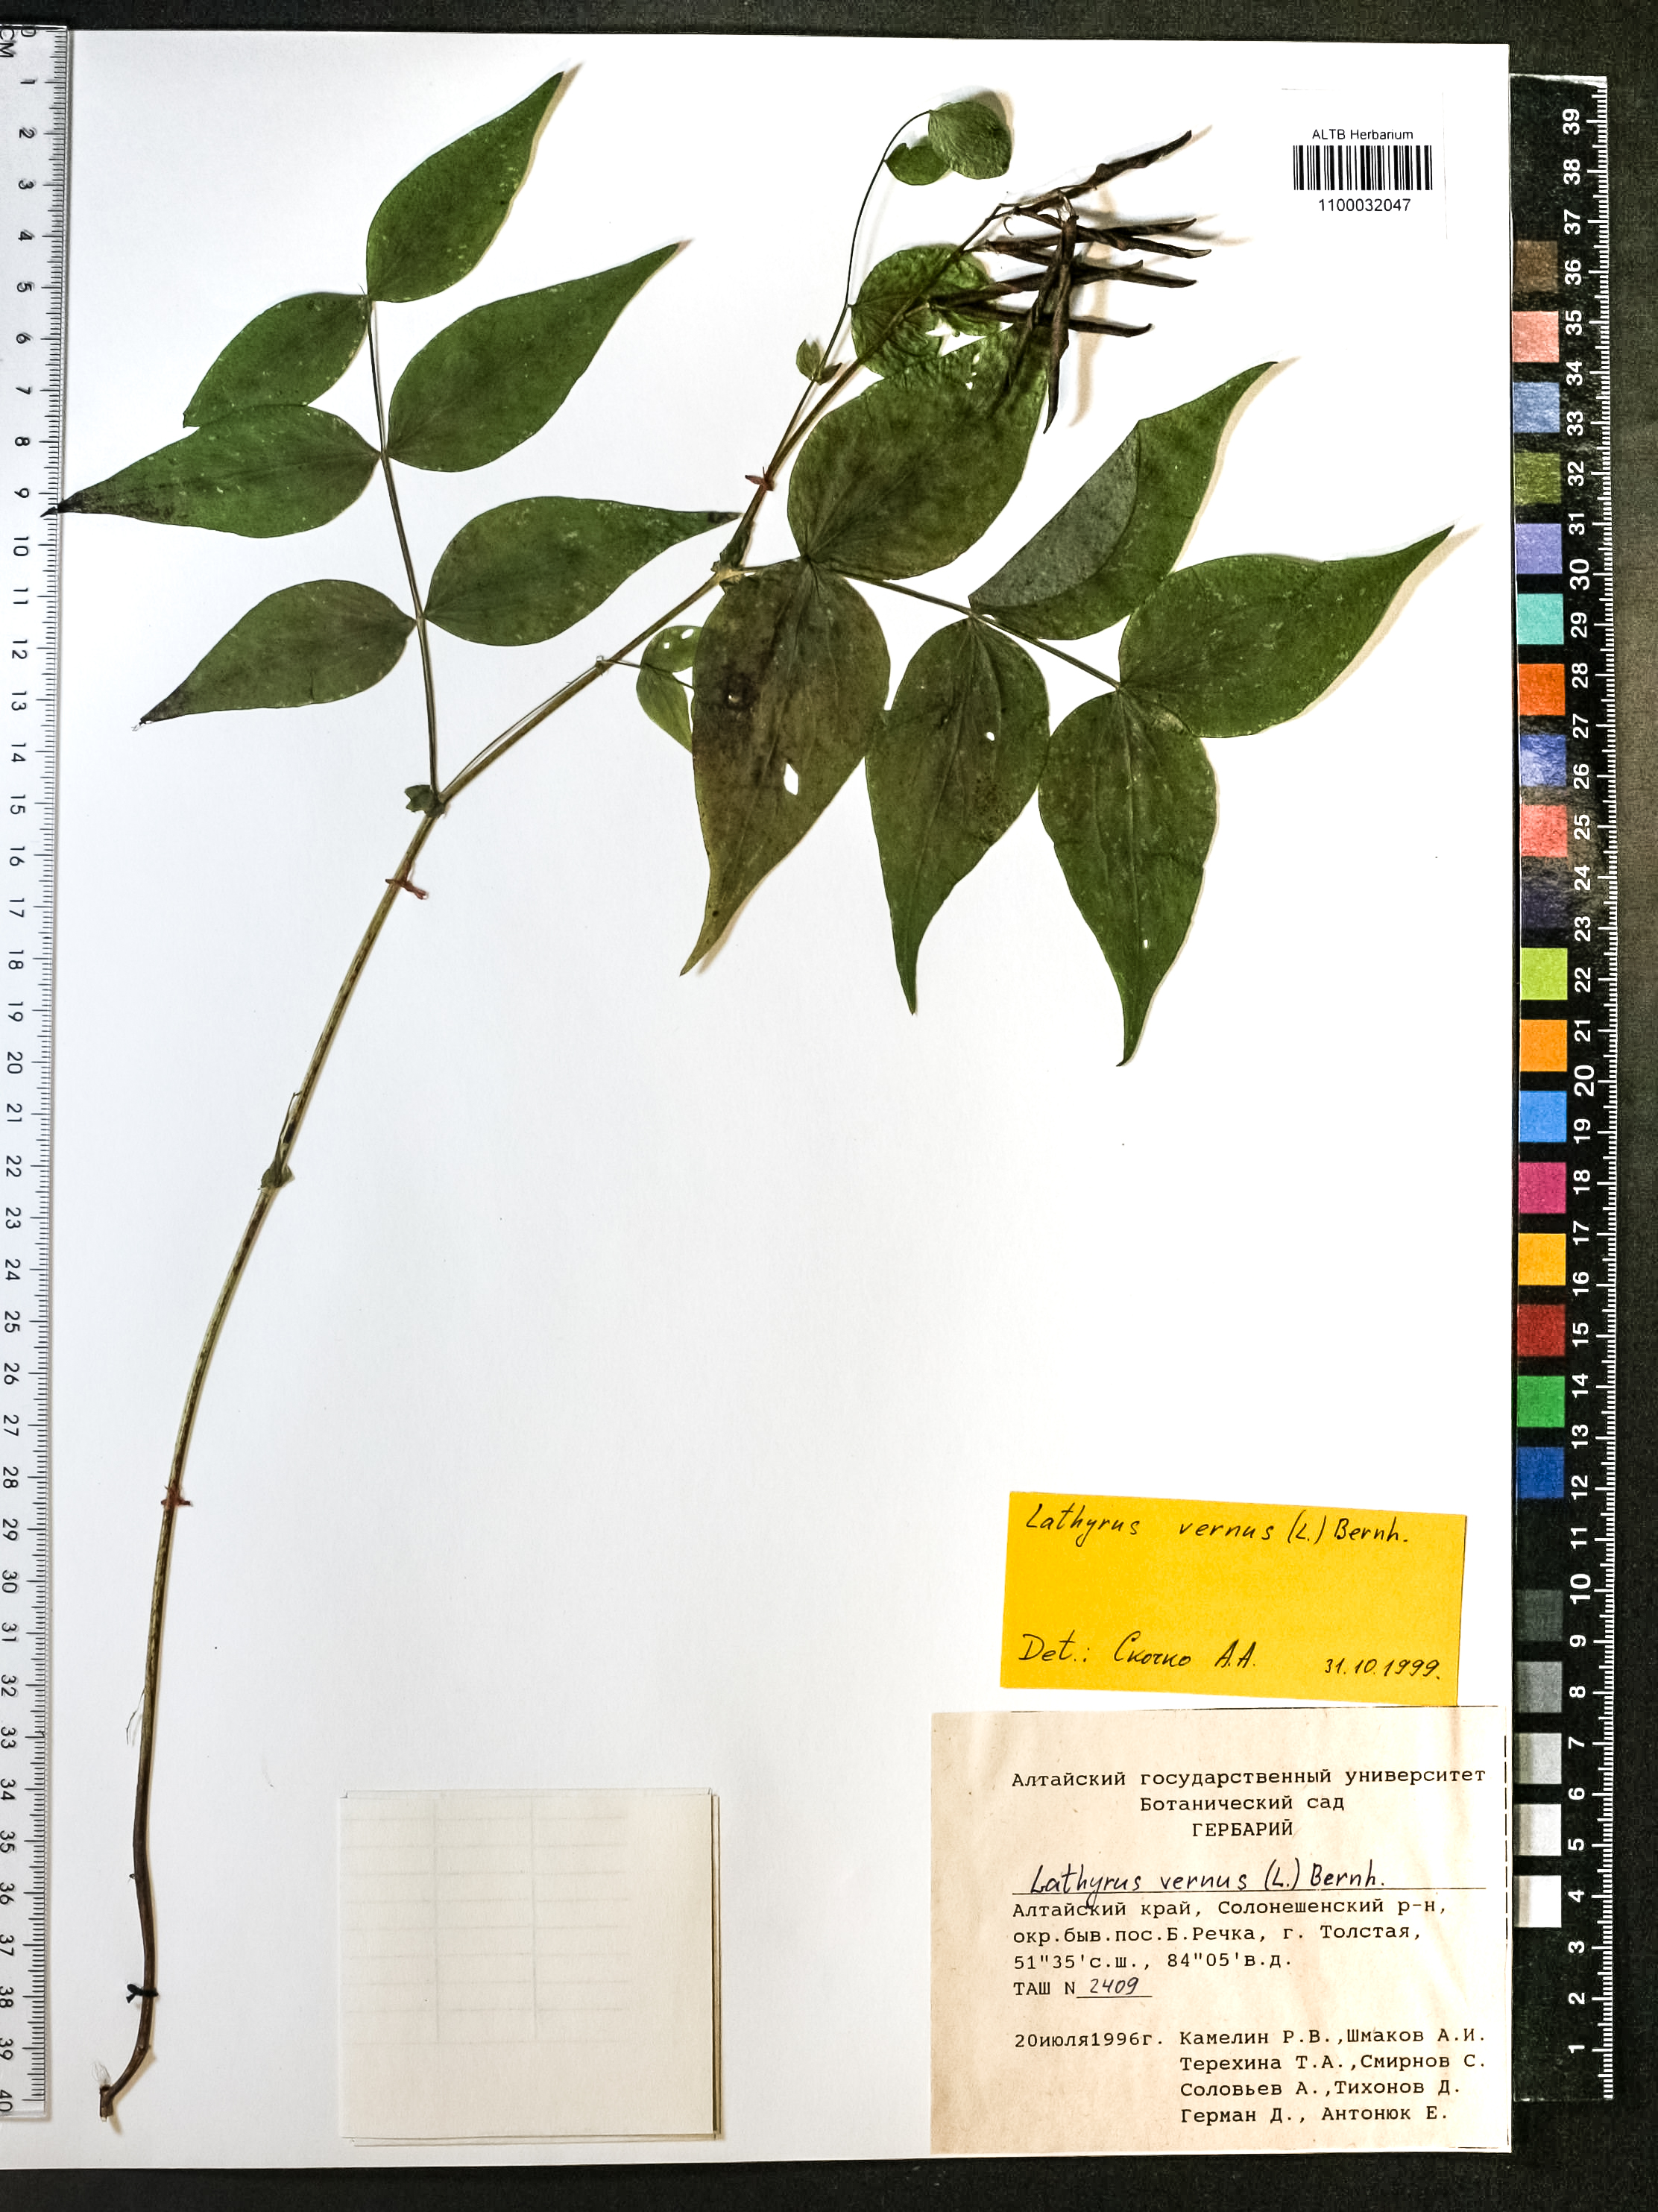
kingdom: Plantae
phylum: Tracheophyta
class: Magnoliopsida
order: Fabales
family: Fabaceae
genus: Lathyrus
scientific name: Lathyrus vernus
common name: Spring pea
